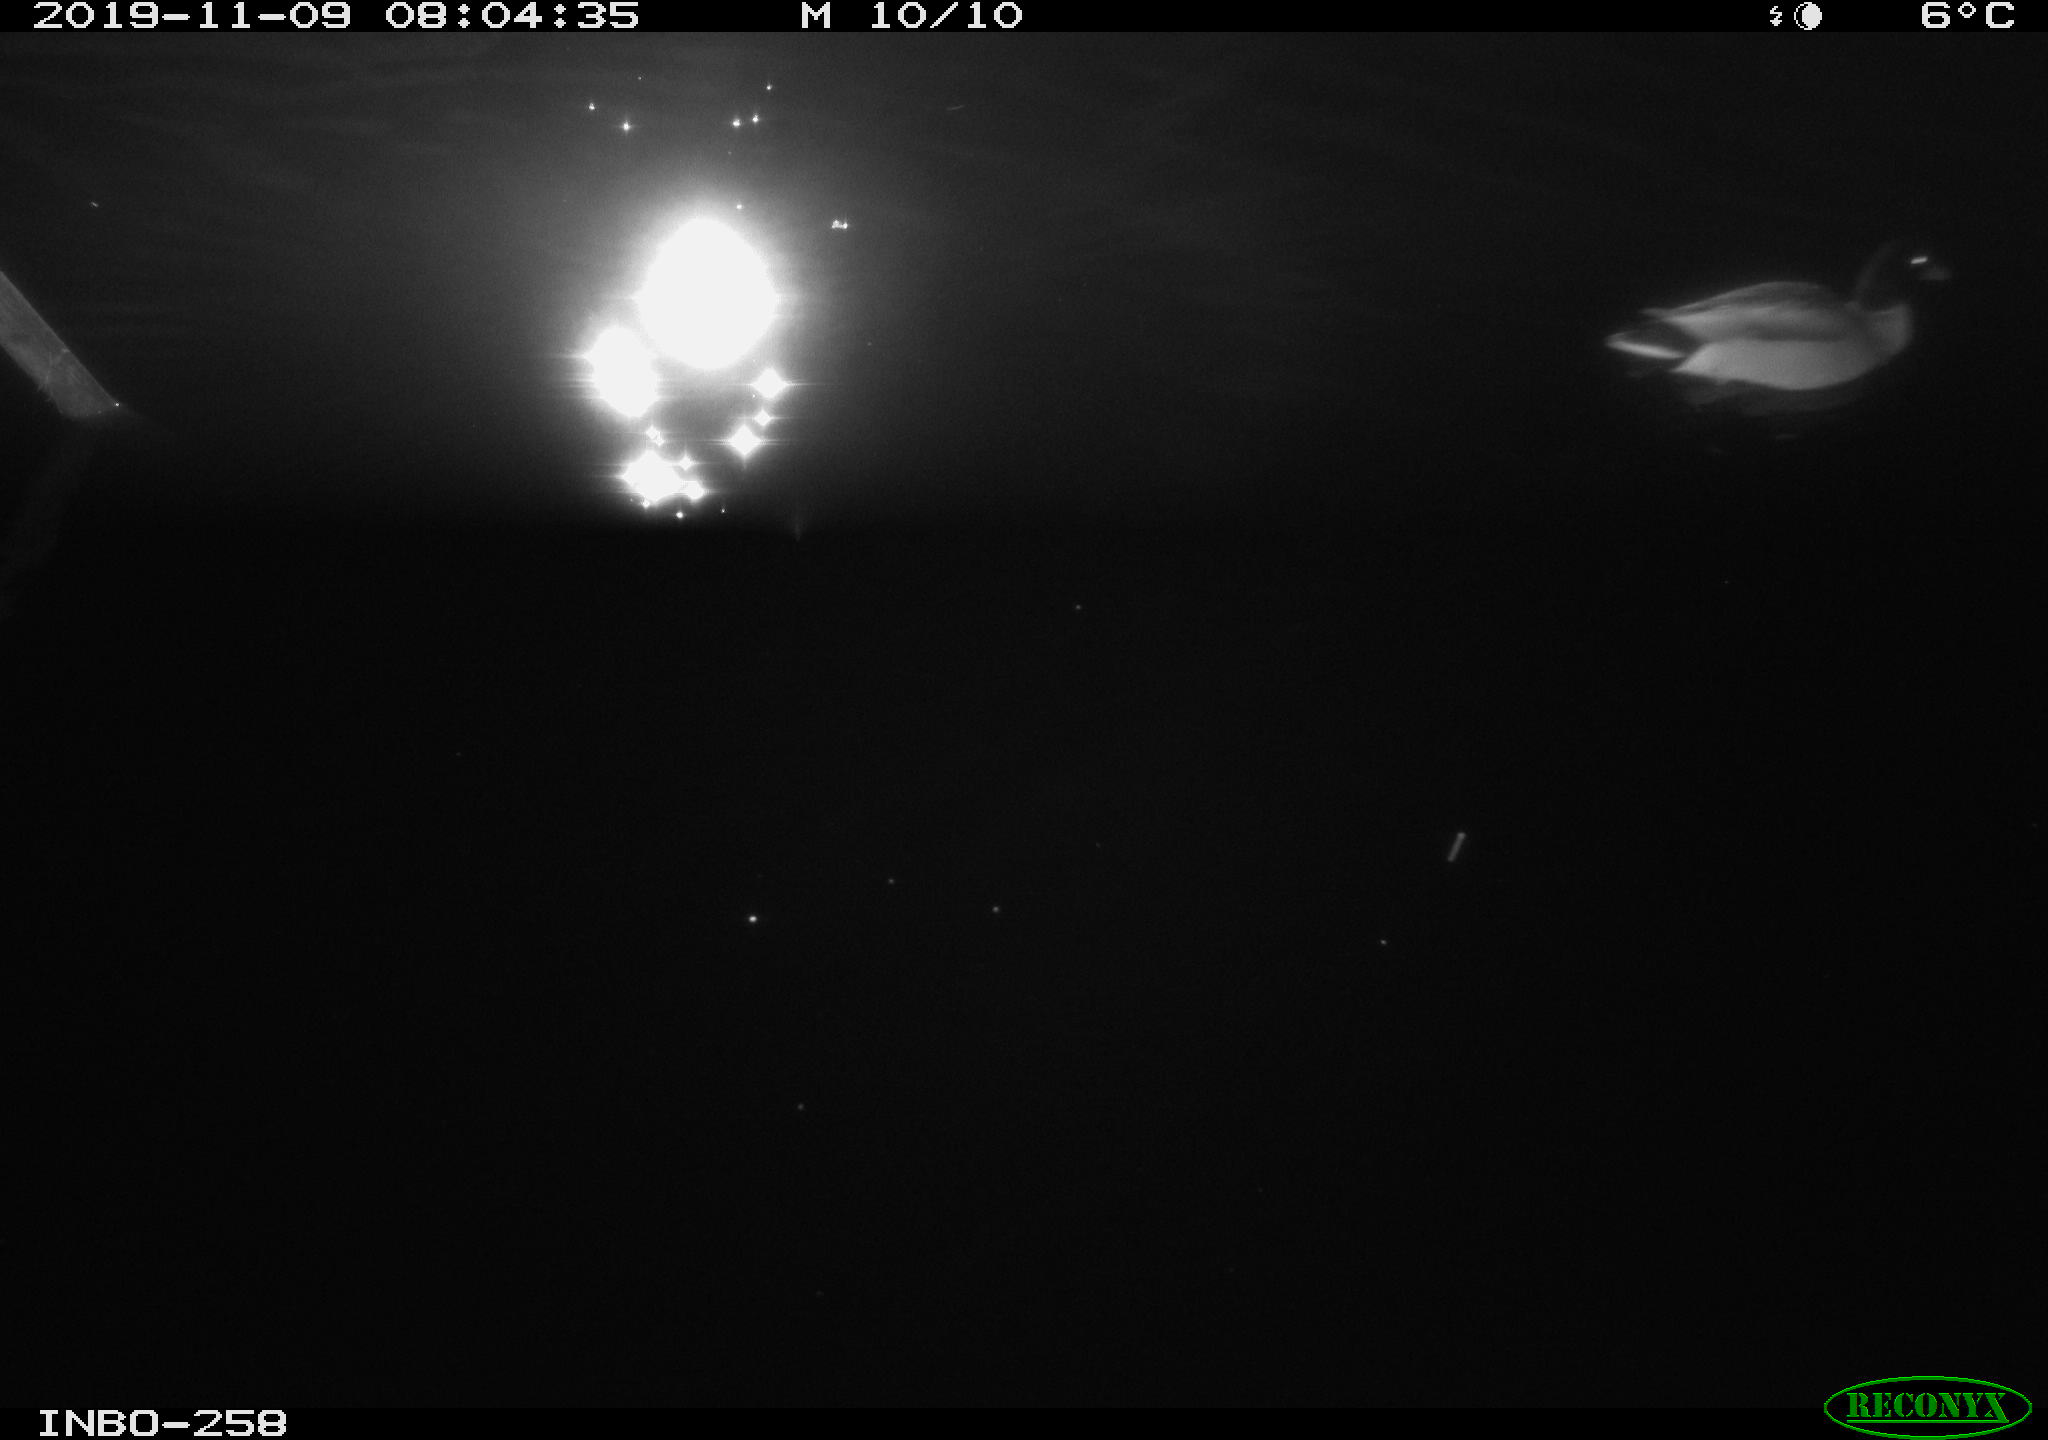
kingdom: Animalia
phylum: Chordata
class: Aves
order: Anseriformes
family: Anatidae
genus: Anas
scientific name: Anas platyrhynchos
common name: Mallard
